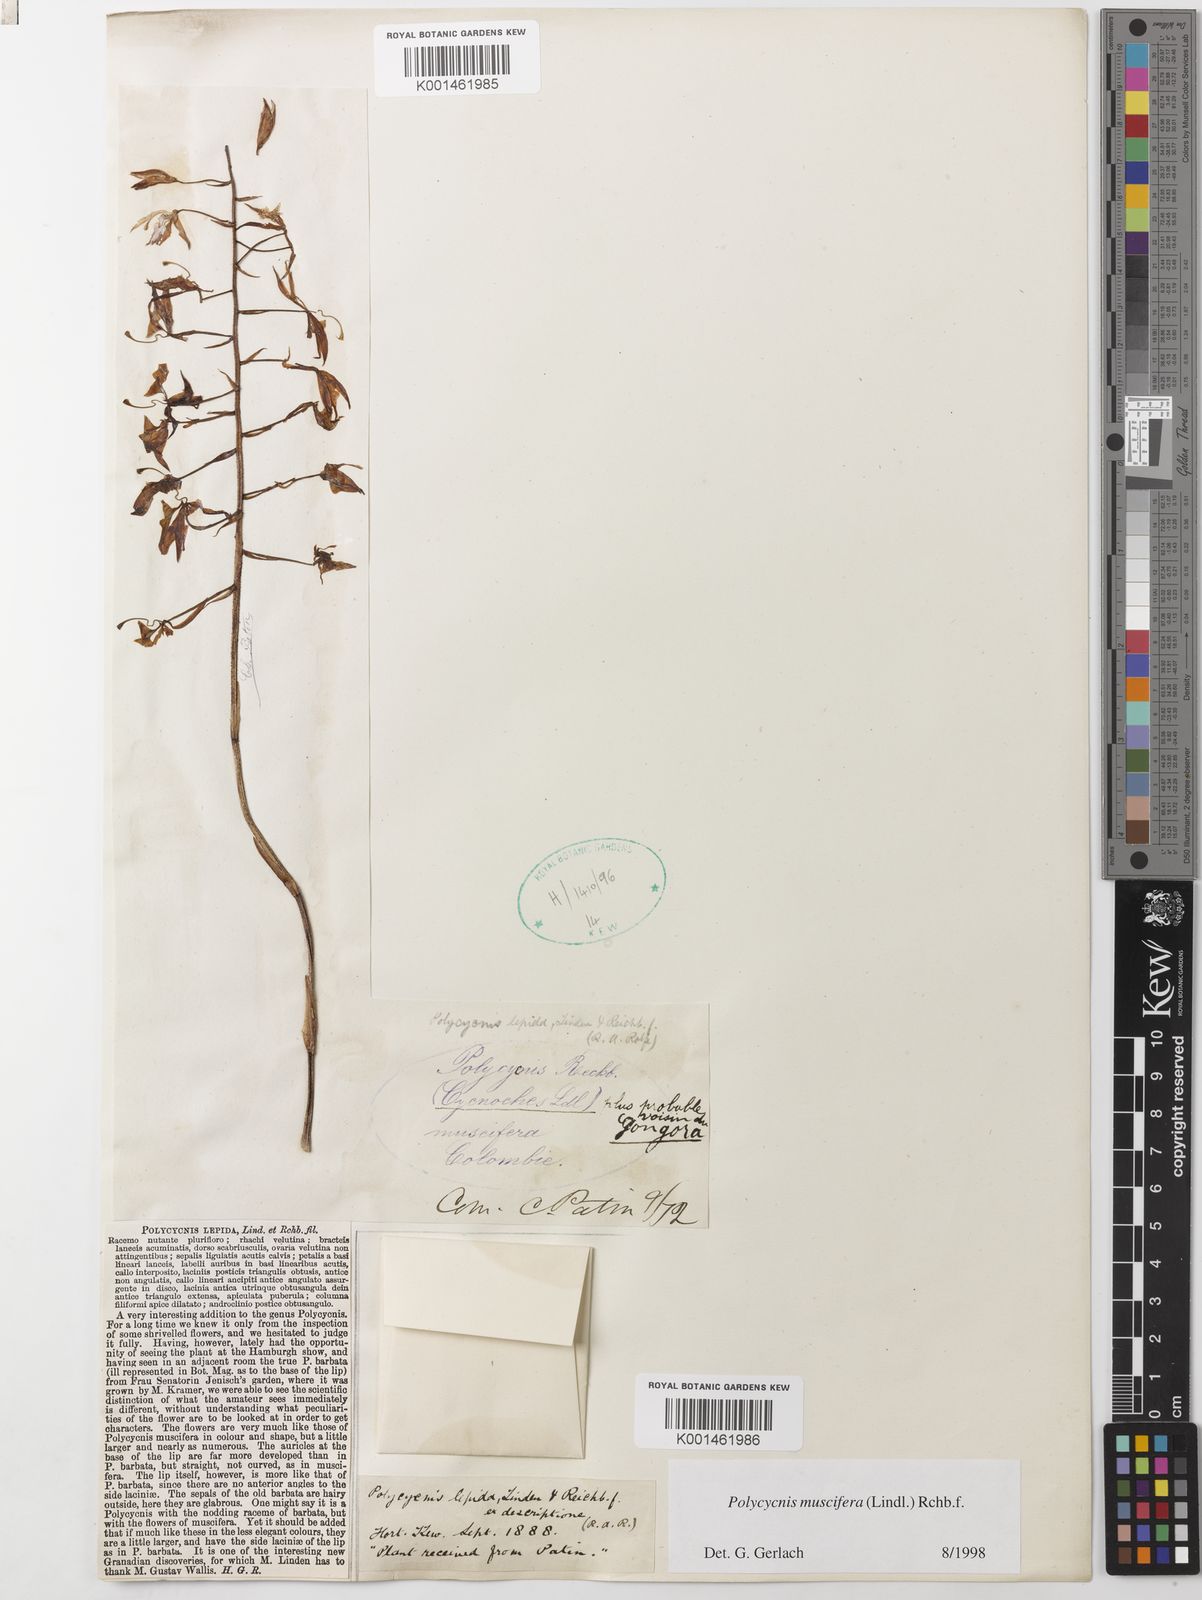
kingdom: Plantae
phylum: Tracheophyta
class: Liliopsida
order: Asparagales
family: Orchidaceae
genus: Polycycnis
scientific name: Polycycnis muscifera
